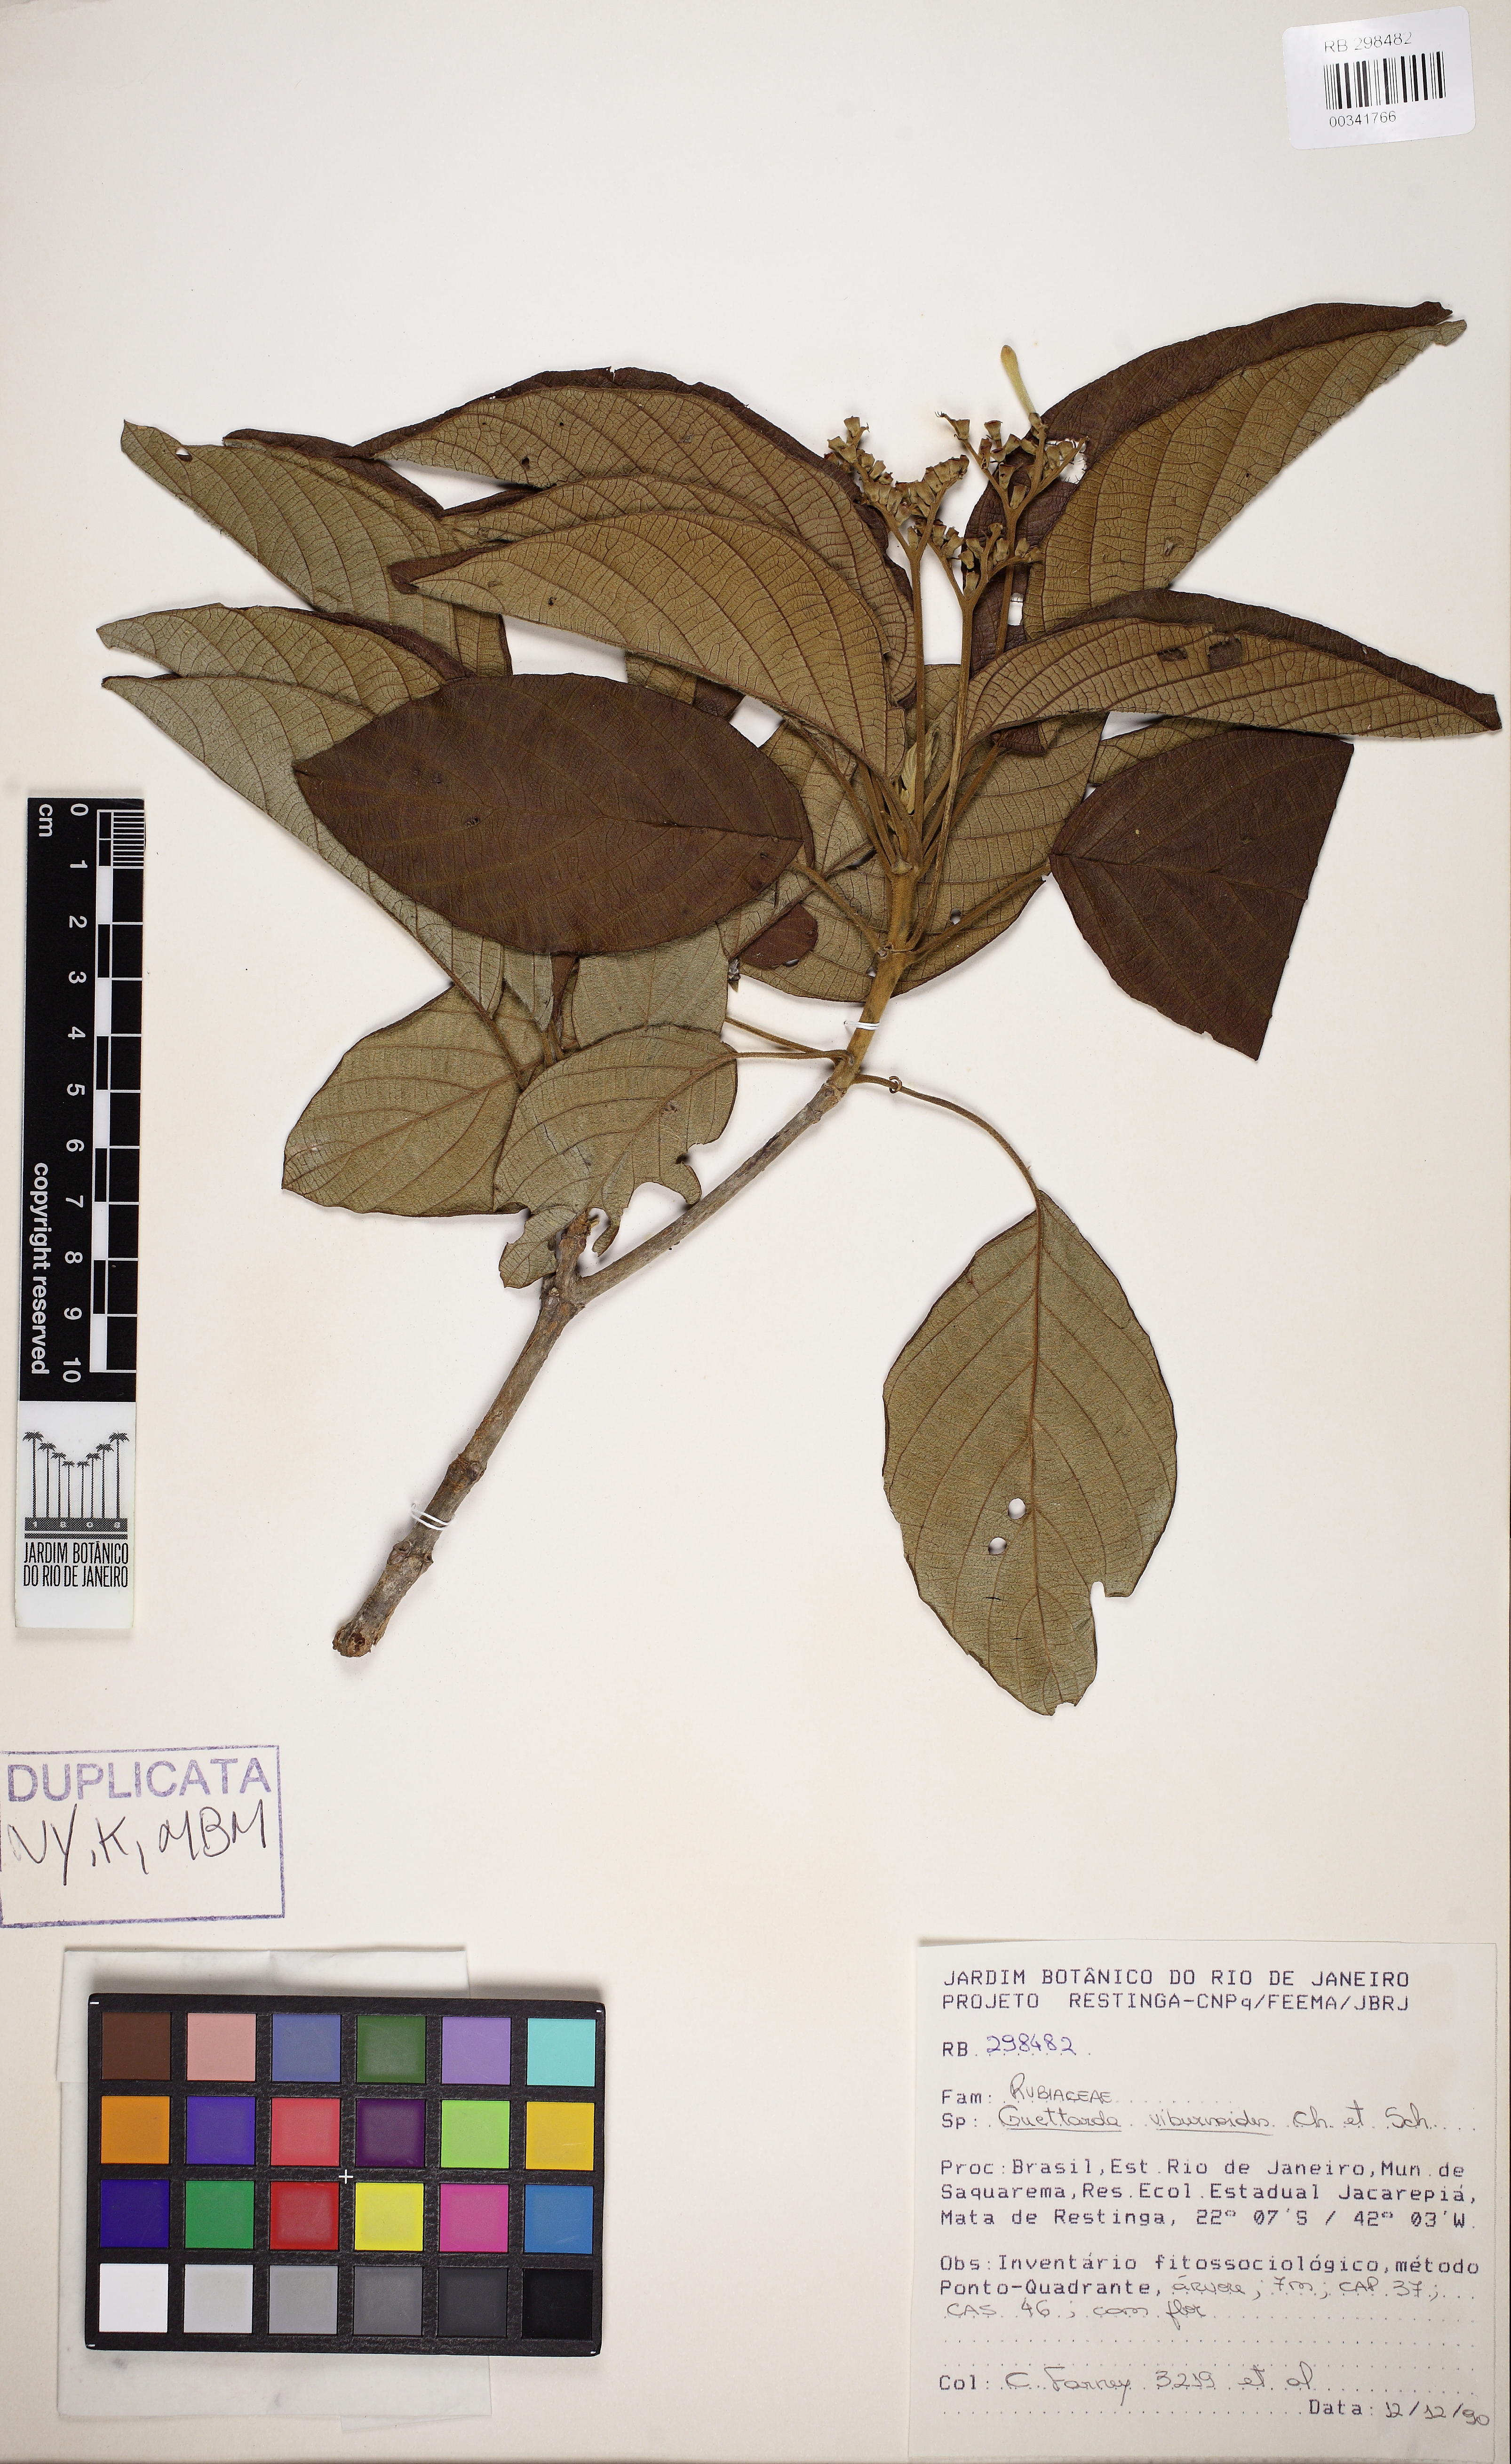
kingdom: Plantae
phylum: Tracheophyta
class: Magnoliopsida
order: Gentianales
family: Rubiaceae
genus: Guettarda
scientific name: Guettarda viburnoides
